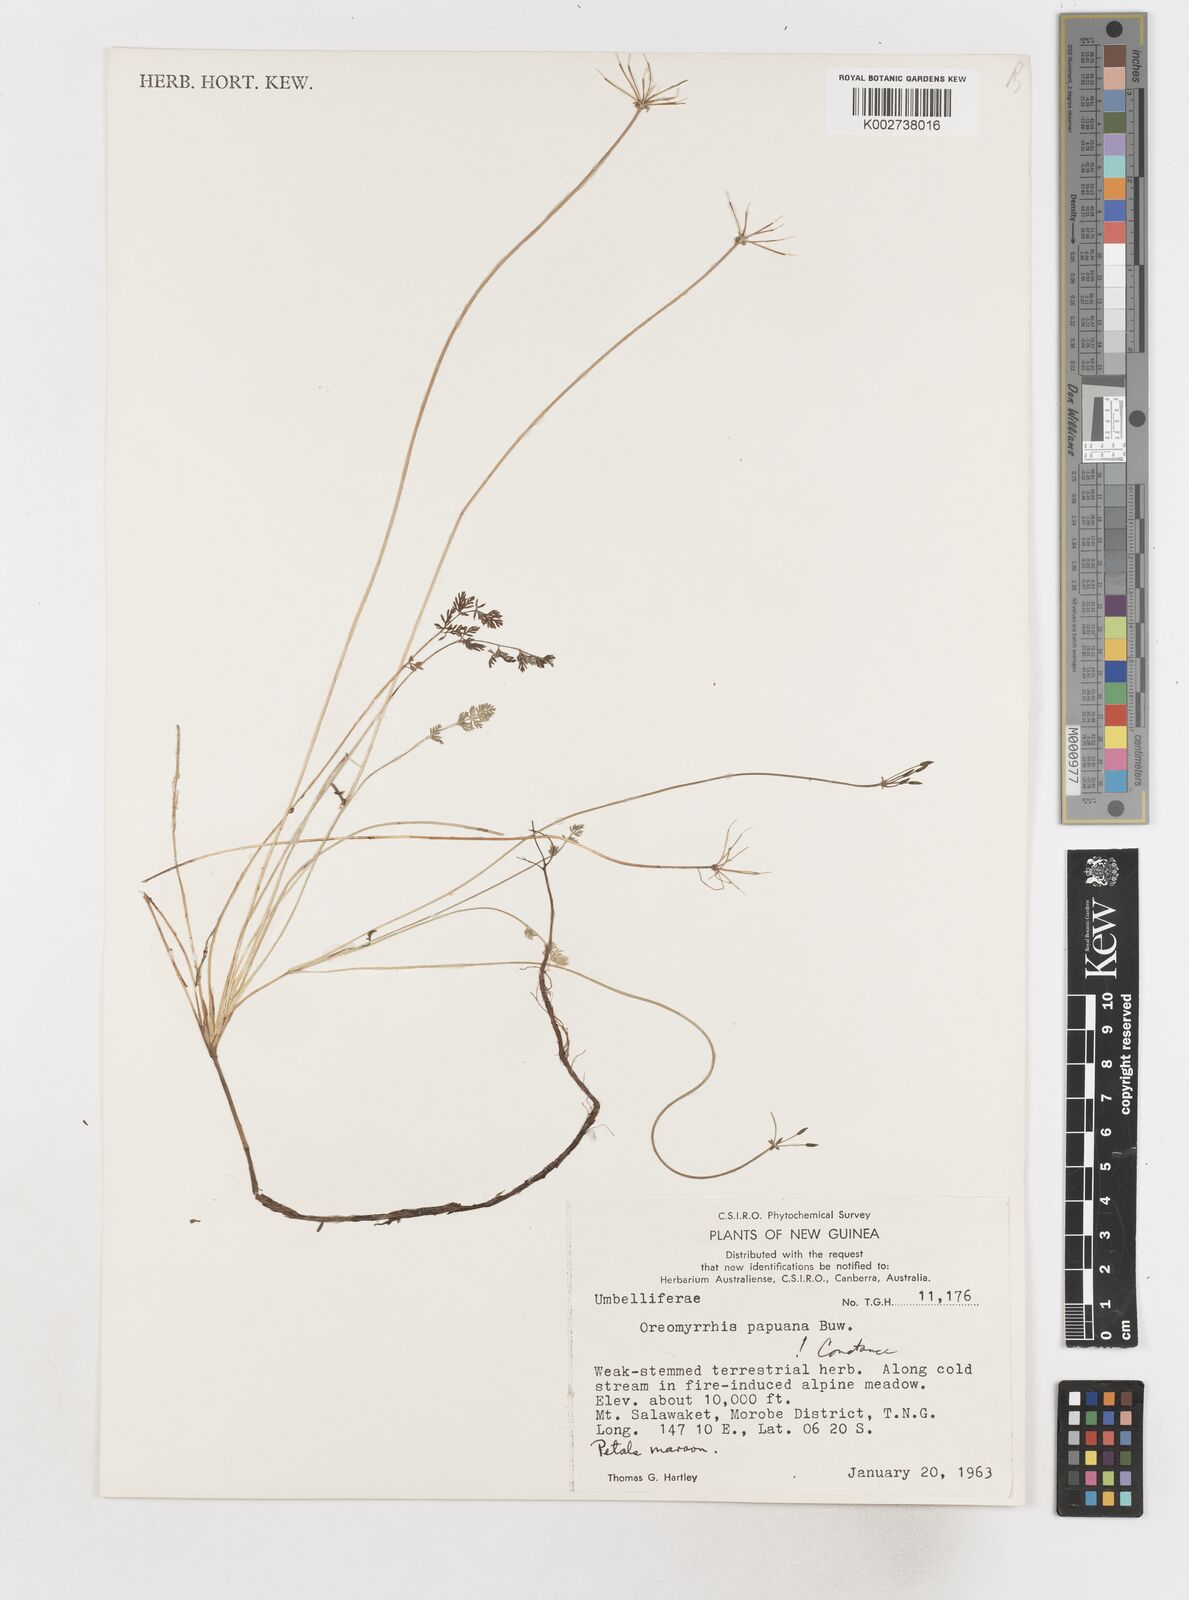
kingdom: Plantae
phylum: Tracheophyta
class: Magnoliopsida
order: Apiales
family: Apiaceae
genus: Chaerophyllum
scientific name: Chaerophyllum papuanum
